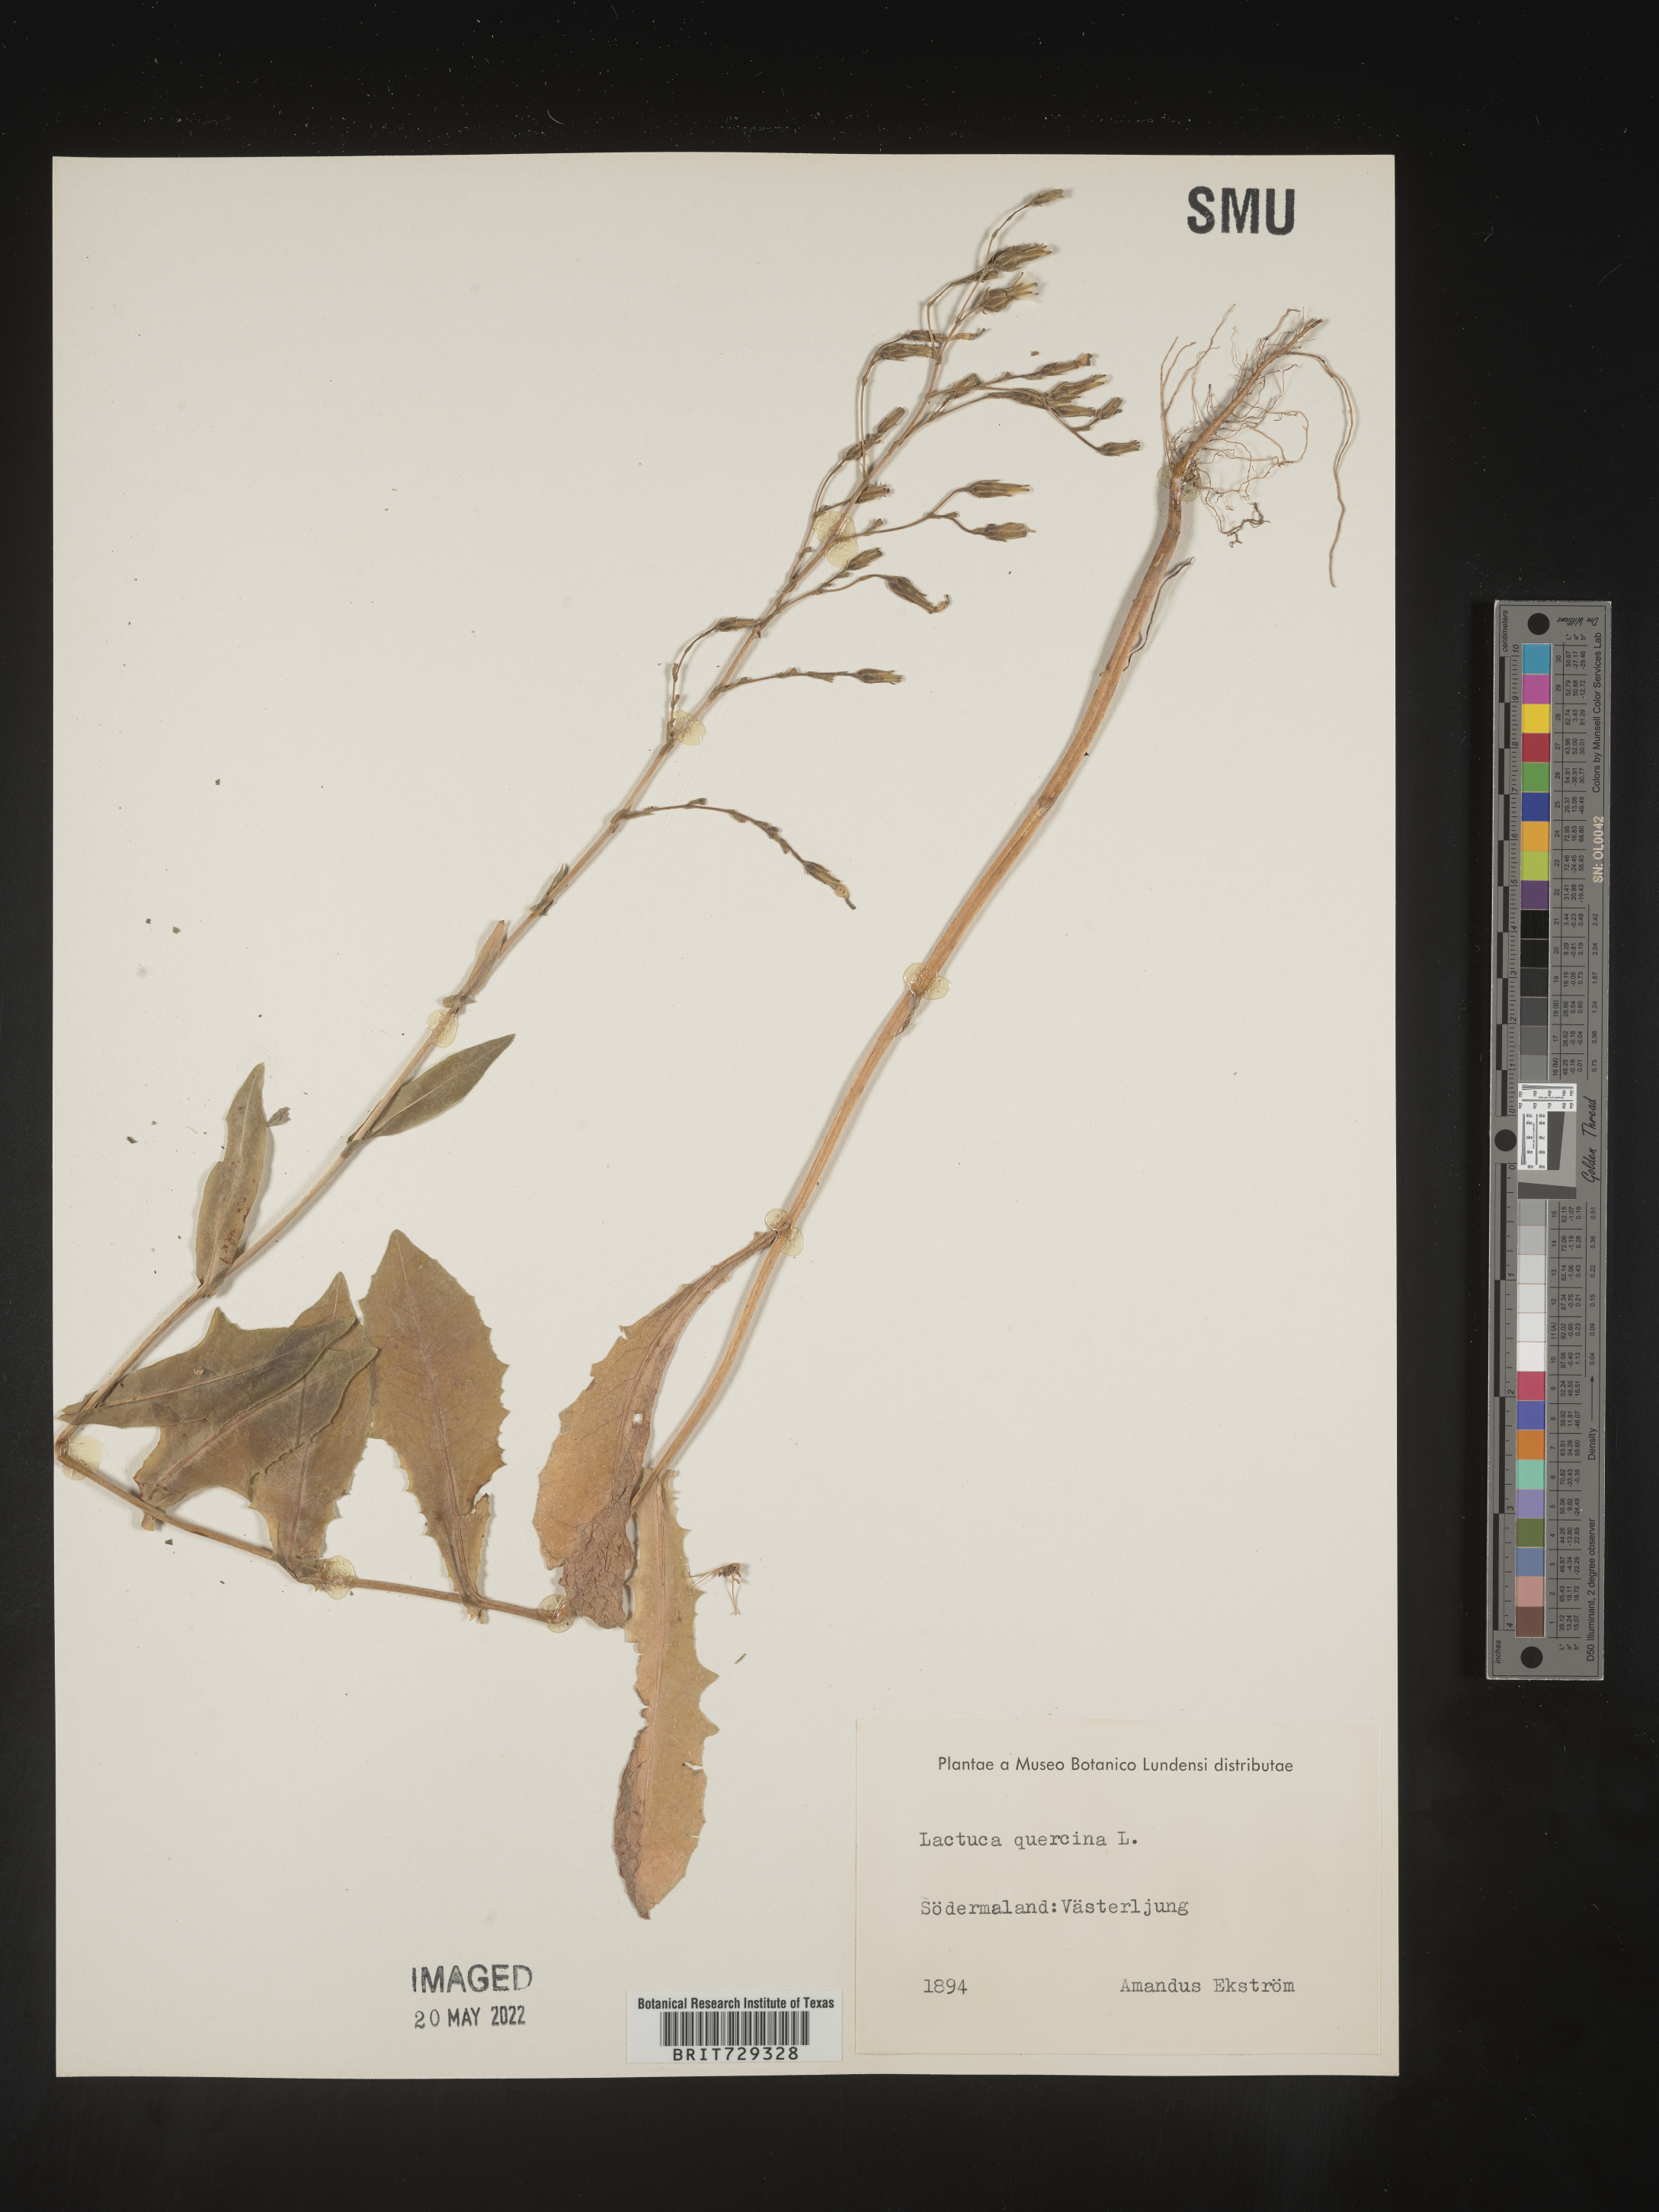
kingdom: Plantae
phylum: Tracheophyta
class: Magnoliopsida
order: Asterales
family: Asteraceae
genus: Lactuca
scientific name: Lactuca
